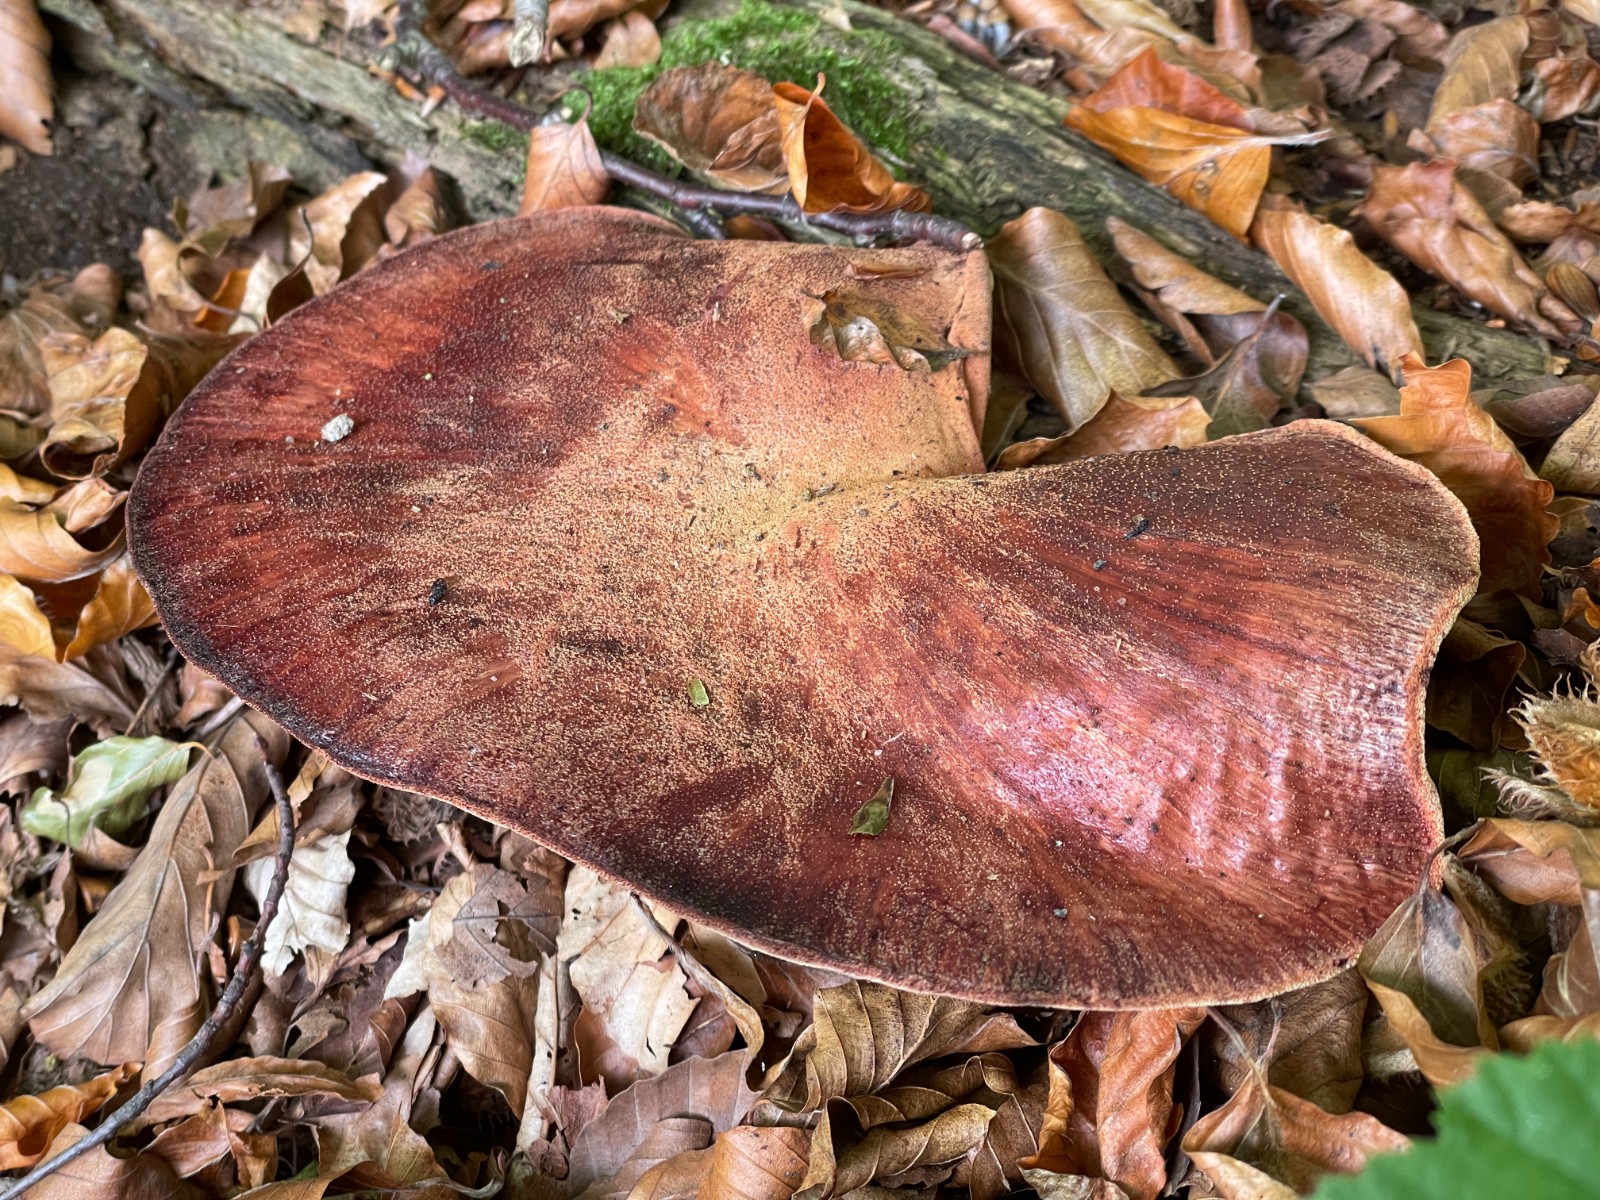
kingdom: Fungi
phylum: Basidiomycota
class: Agaricomycetes
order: Agaricales
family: Fistulinaceae
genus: Fistulina
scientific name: Fistulina hepatica
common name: oksetunge
